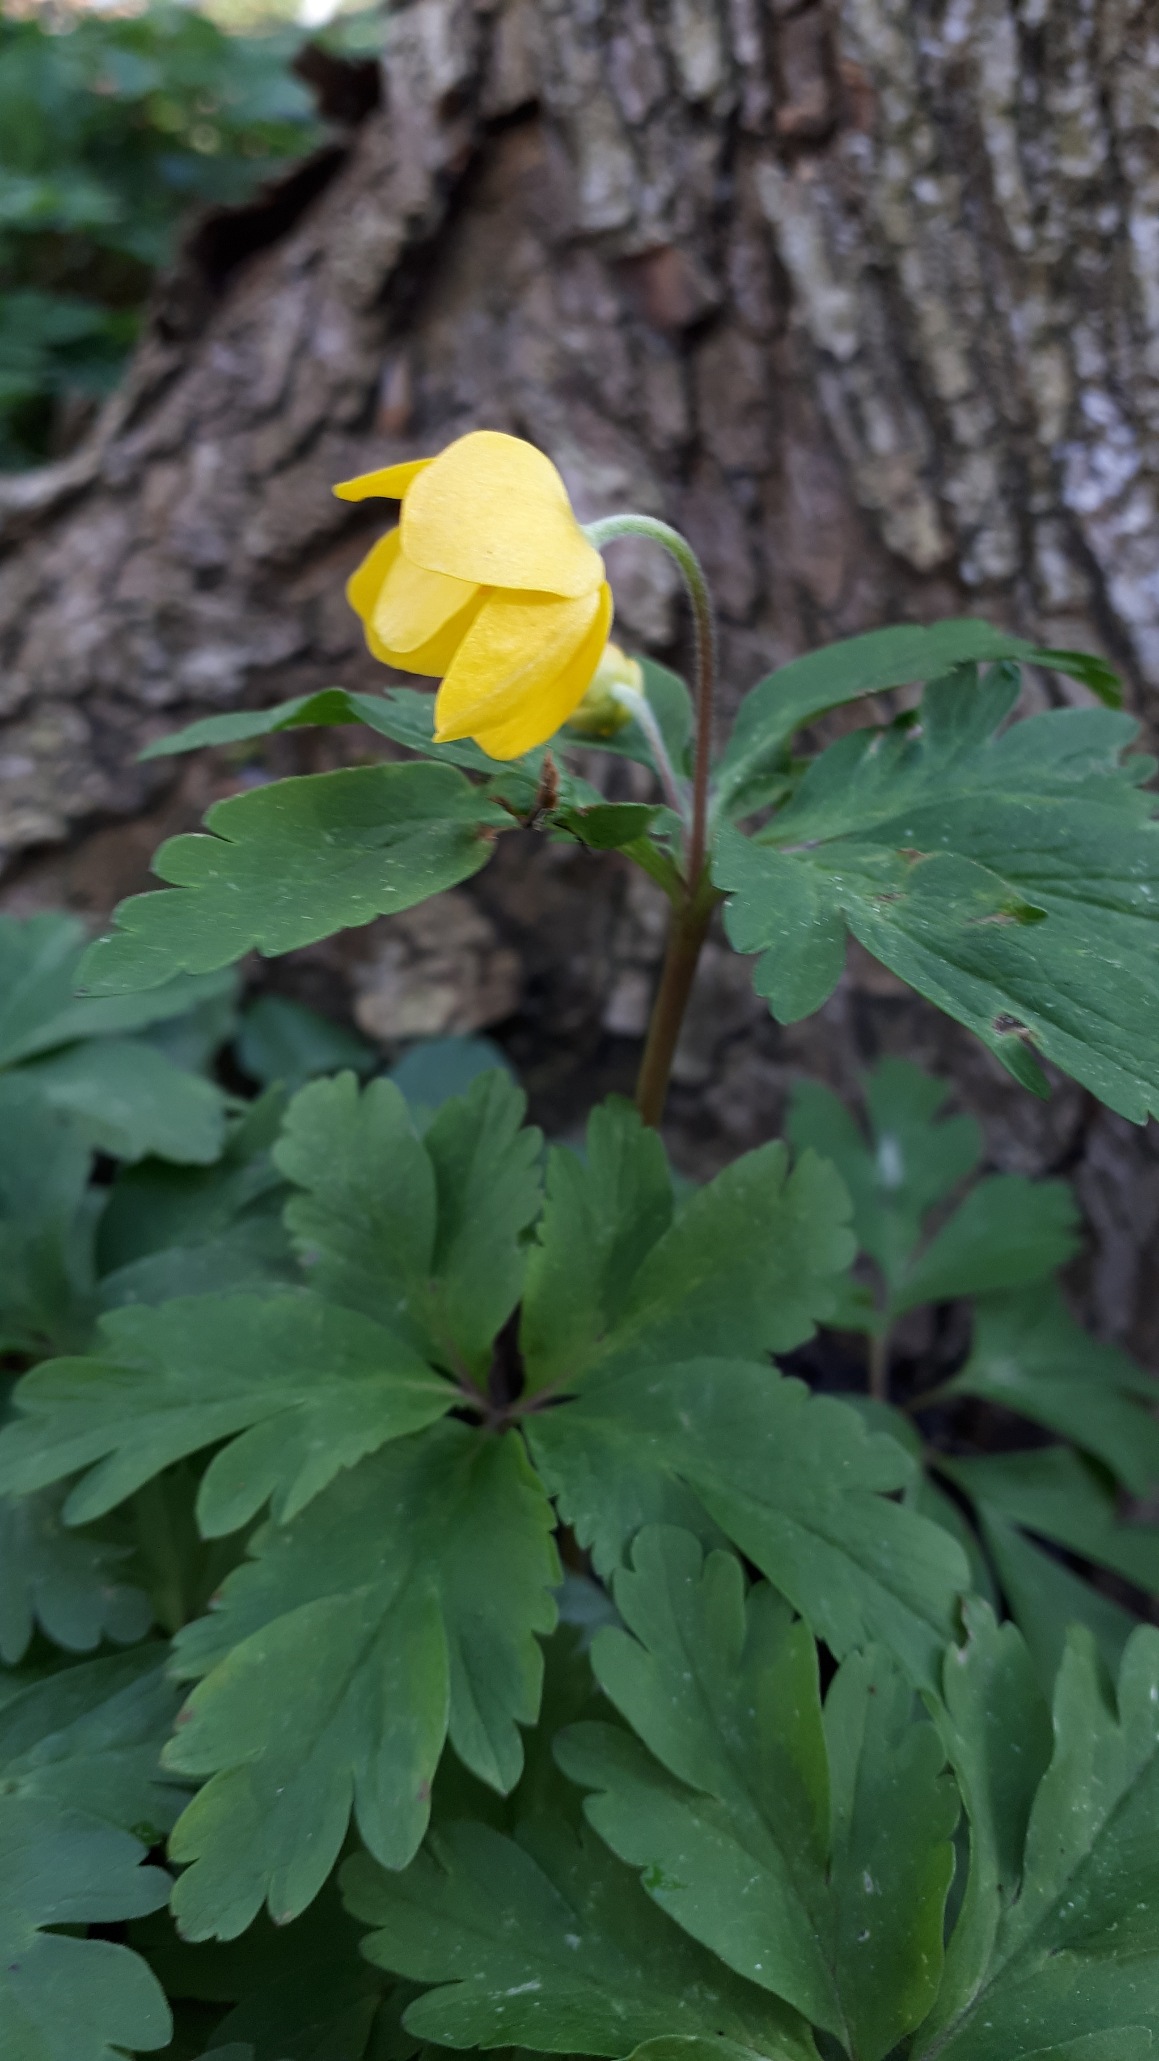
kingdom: Plantae
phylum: Tracheophyta
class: Magnoliopsida
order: Ranunculales
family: Ranunculaceae
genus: Anemone
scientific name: Anemone ranunculoides
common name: Gul anemone
